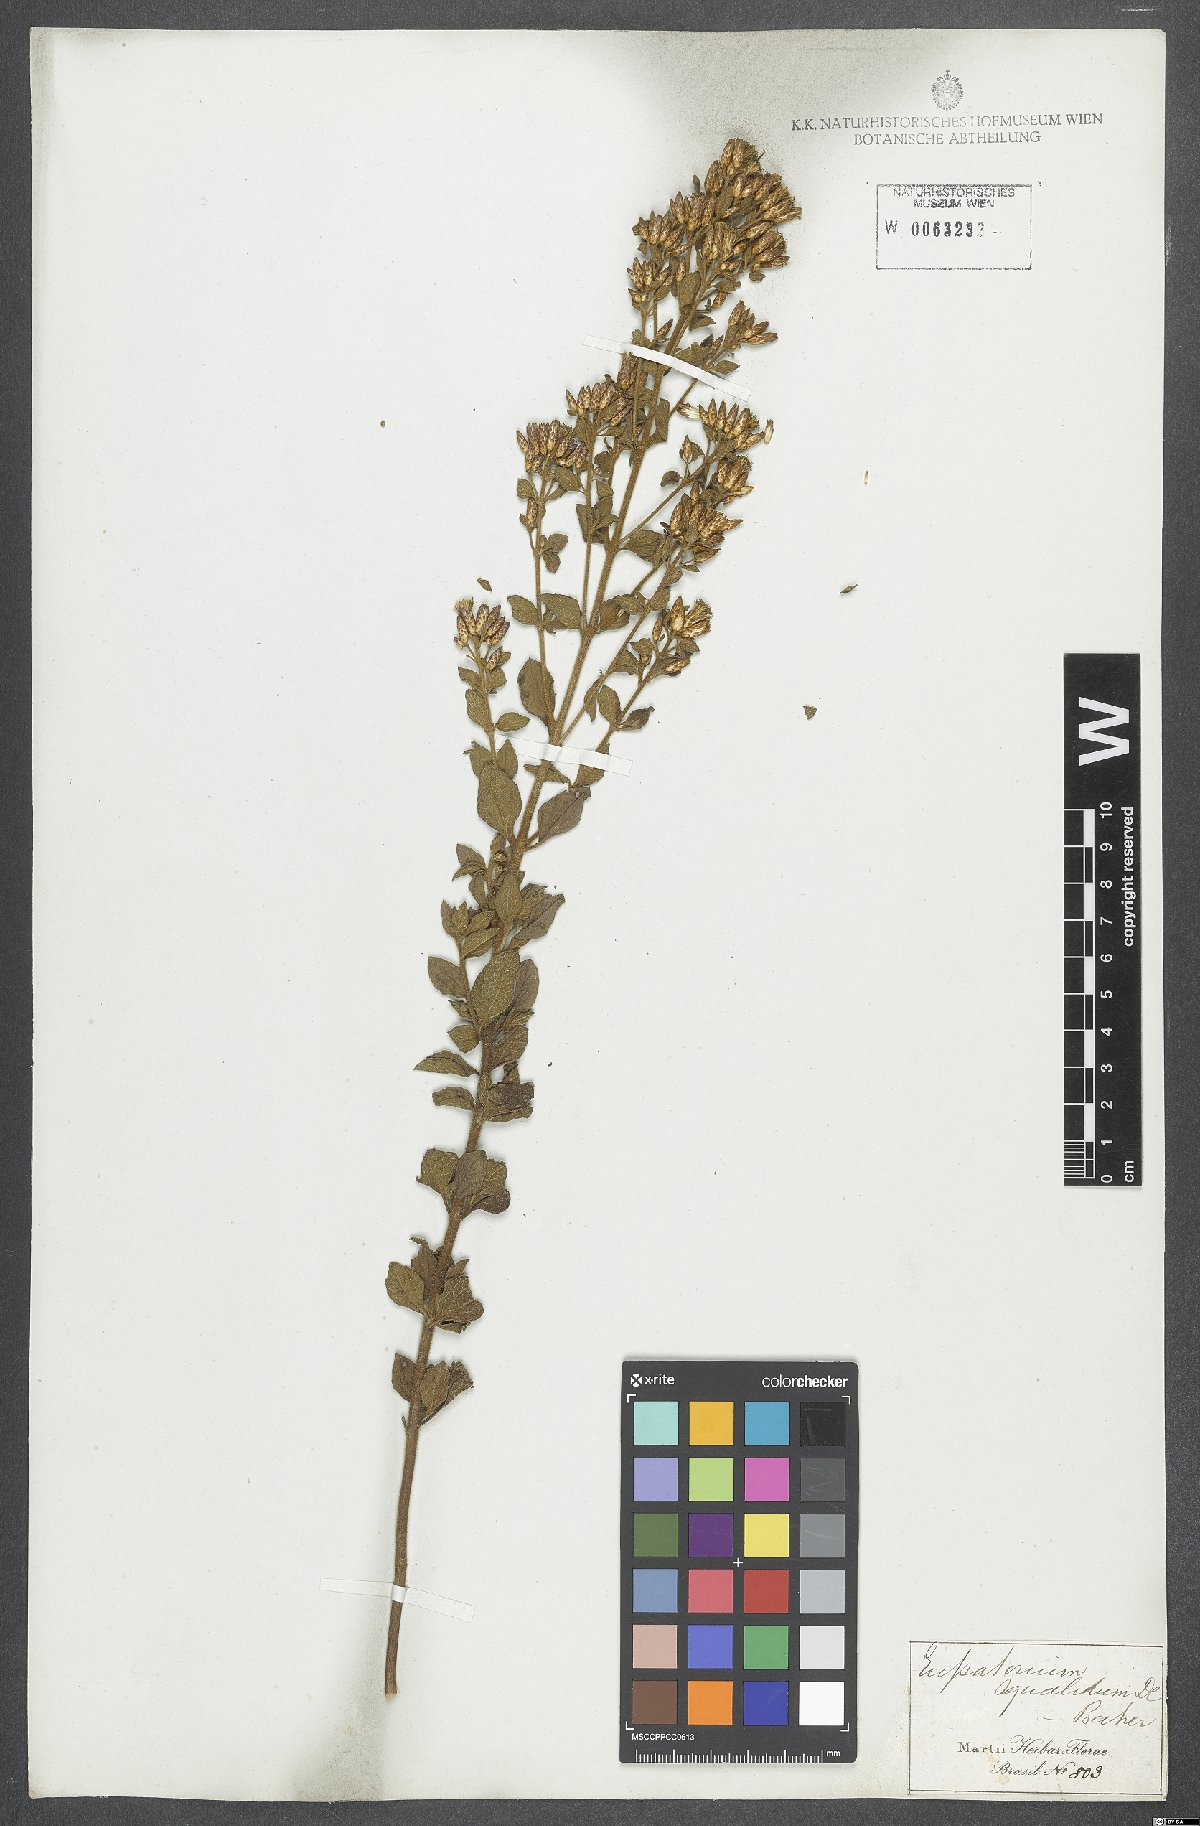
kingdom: Plantae
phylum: Tracheophyta
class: Magnoliopsida
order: Asterales
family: Asteraceae
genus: Chromolaena
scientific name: Chromolaena squalida
